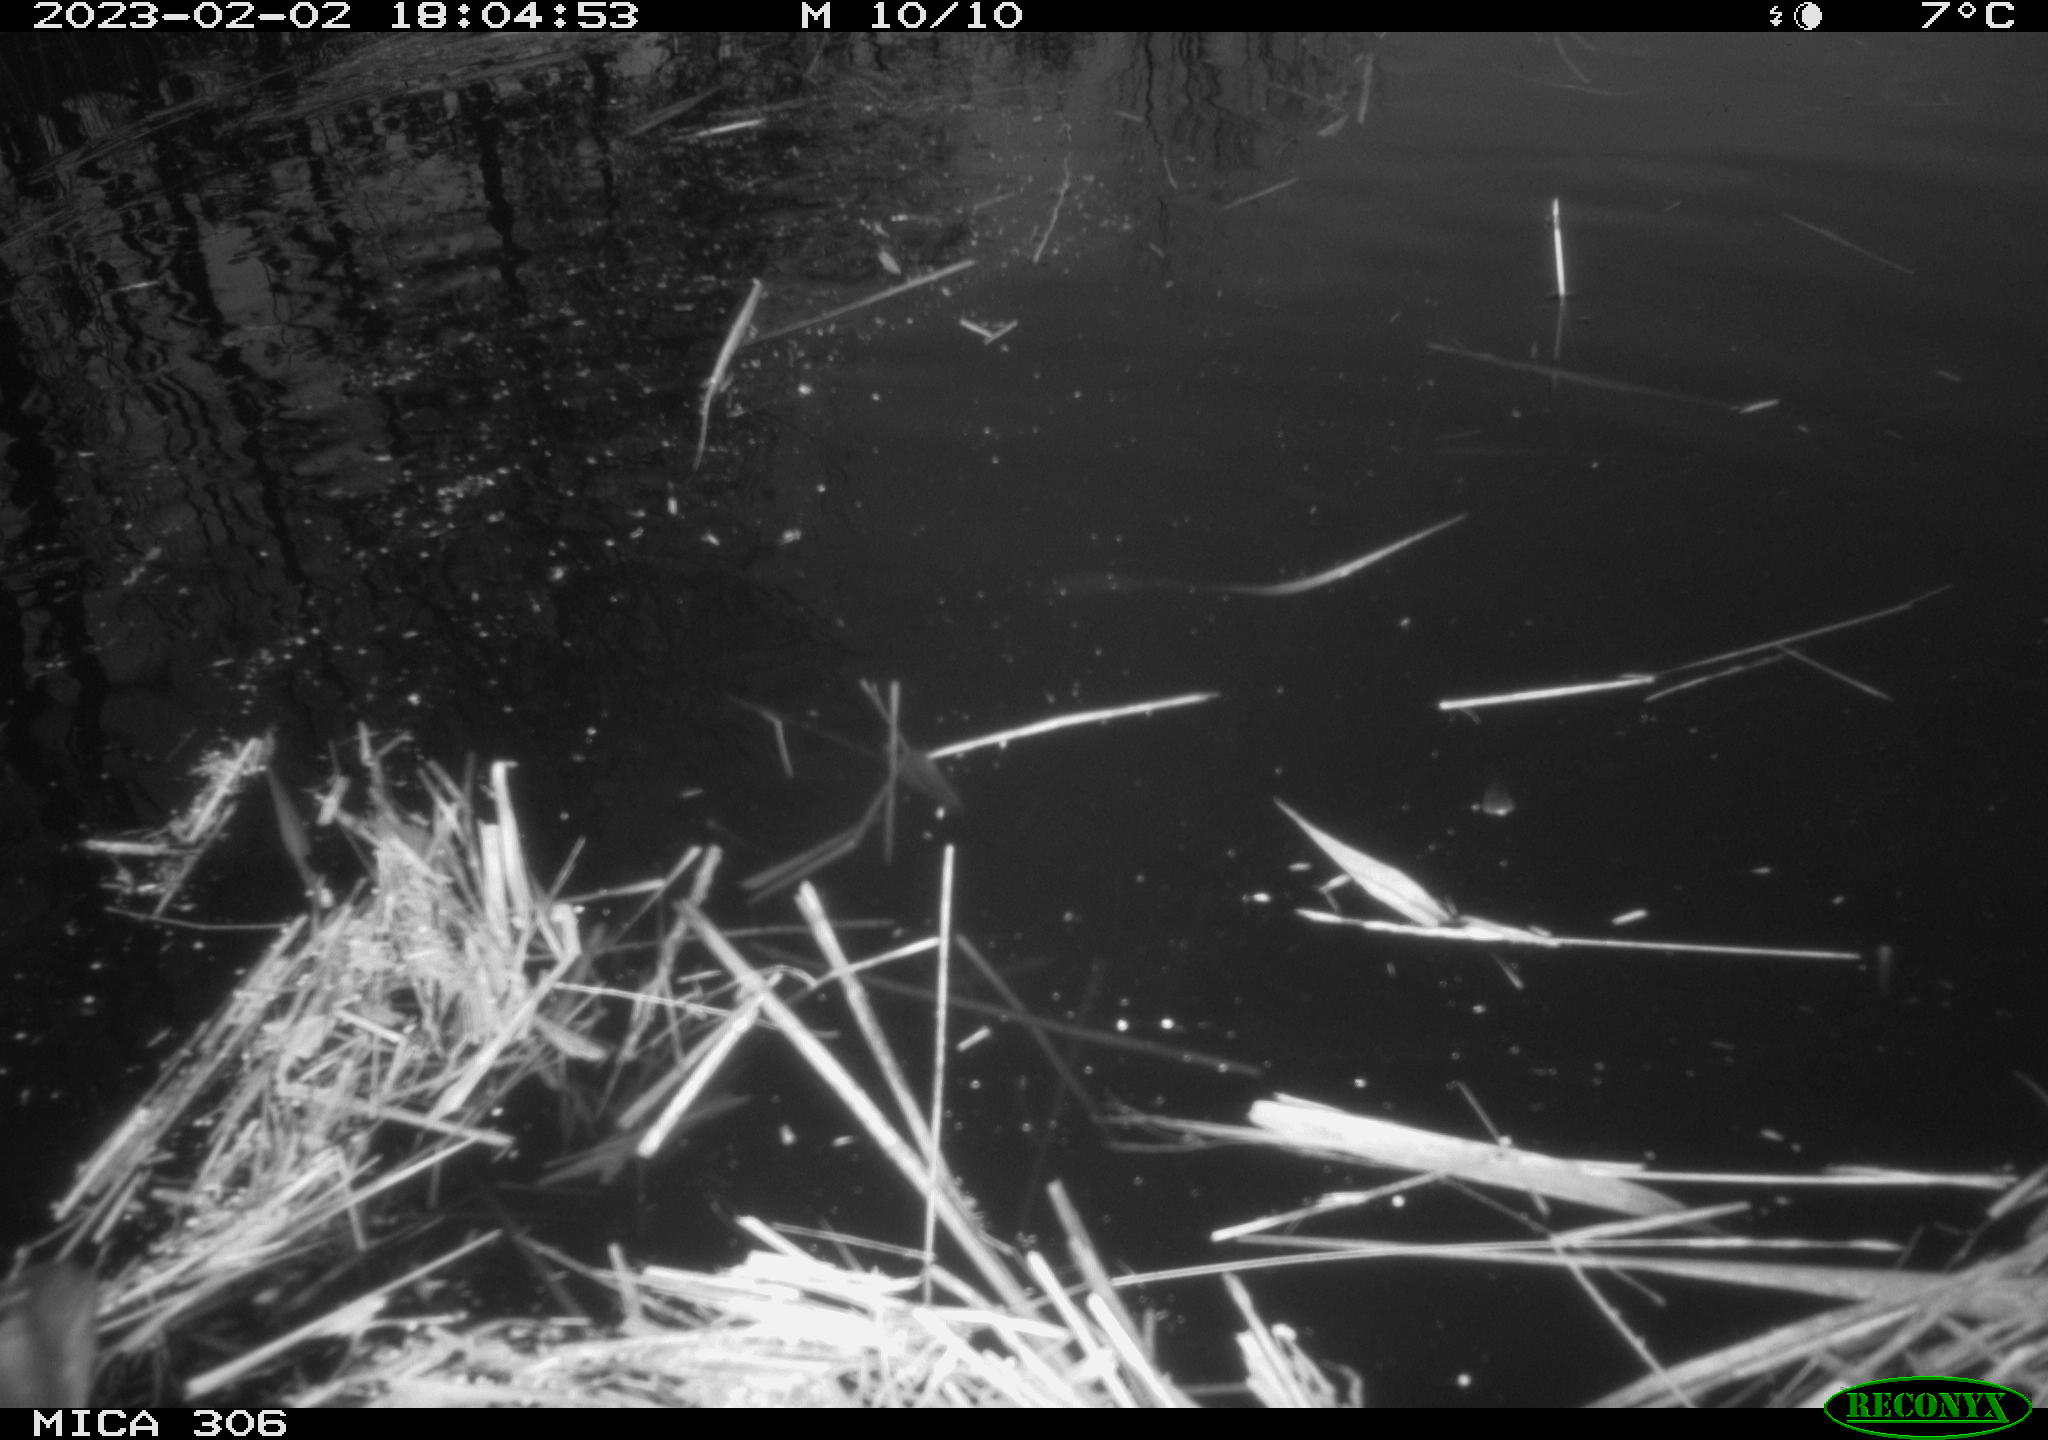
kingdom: Animalia
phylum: Chordata
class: Aves
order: Gruiformes
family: Rallidae
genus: Gallinula
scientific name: Gallinula chloropus
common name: Common moorhen
